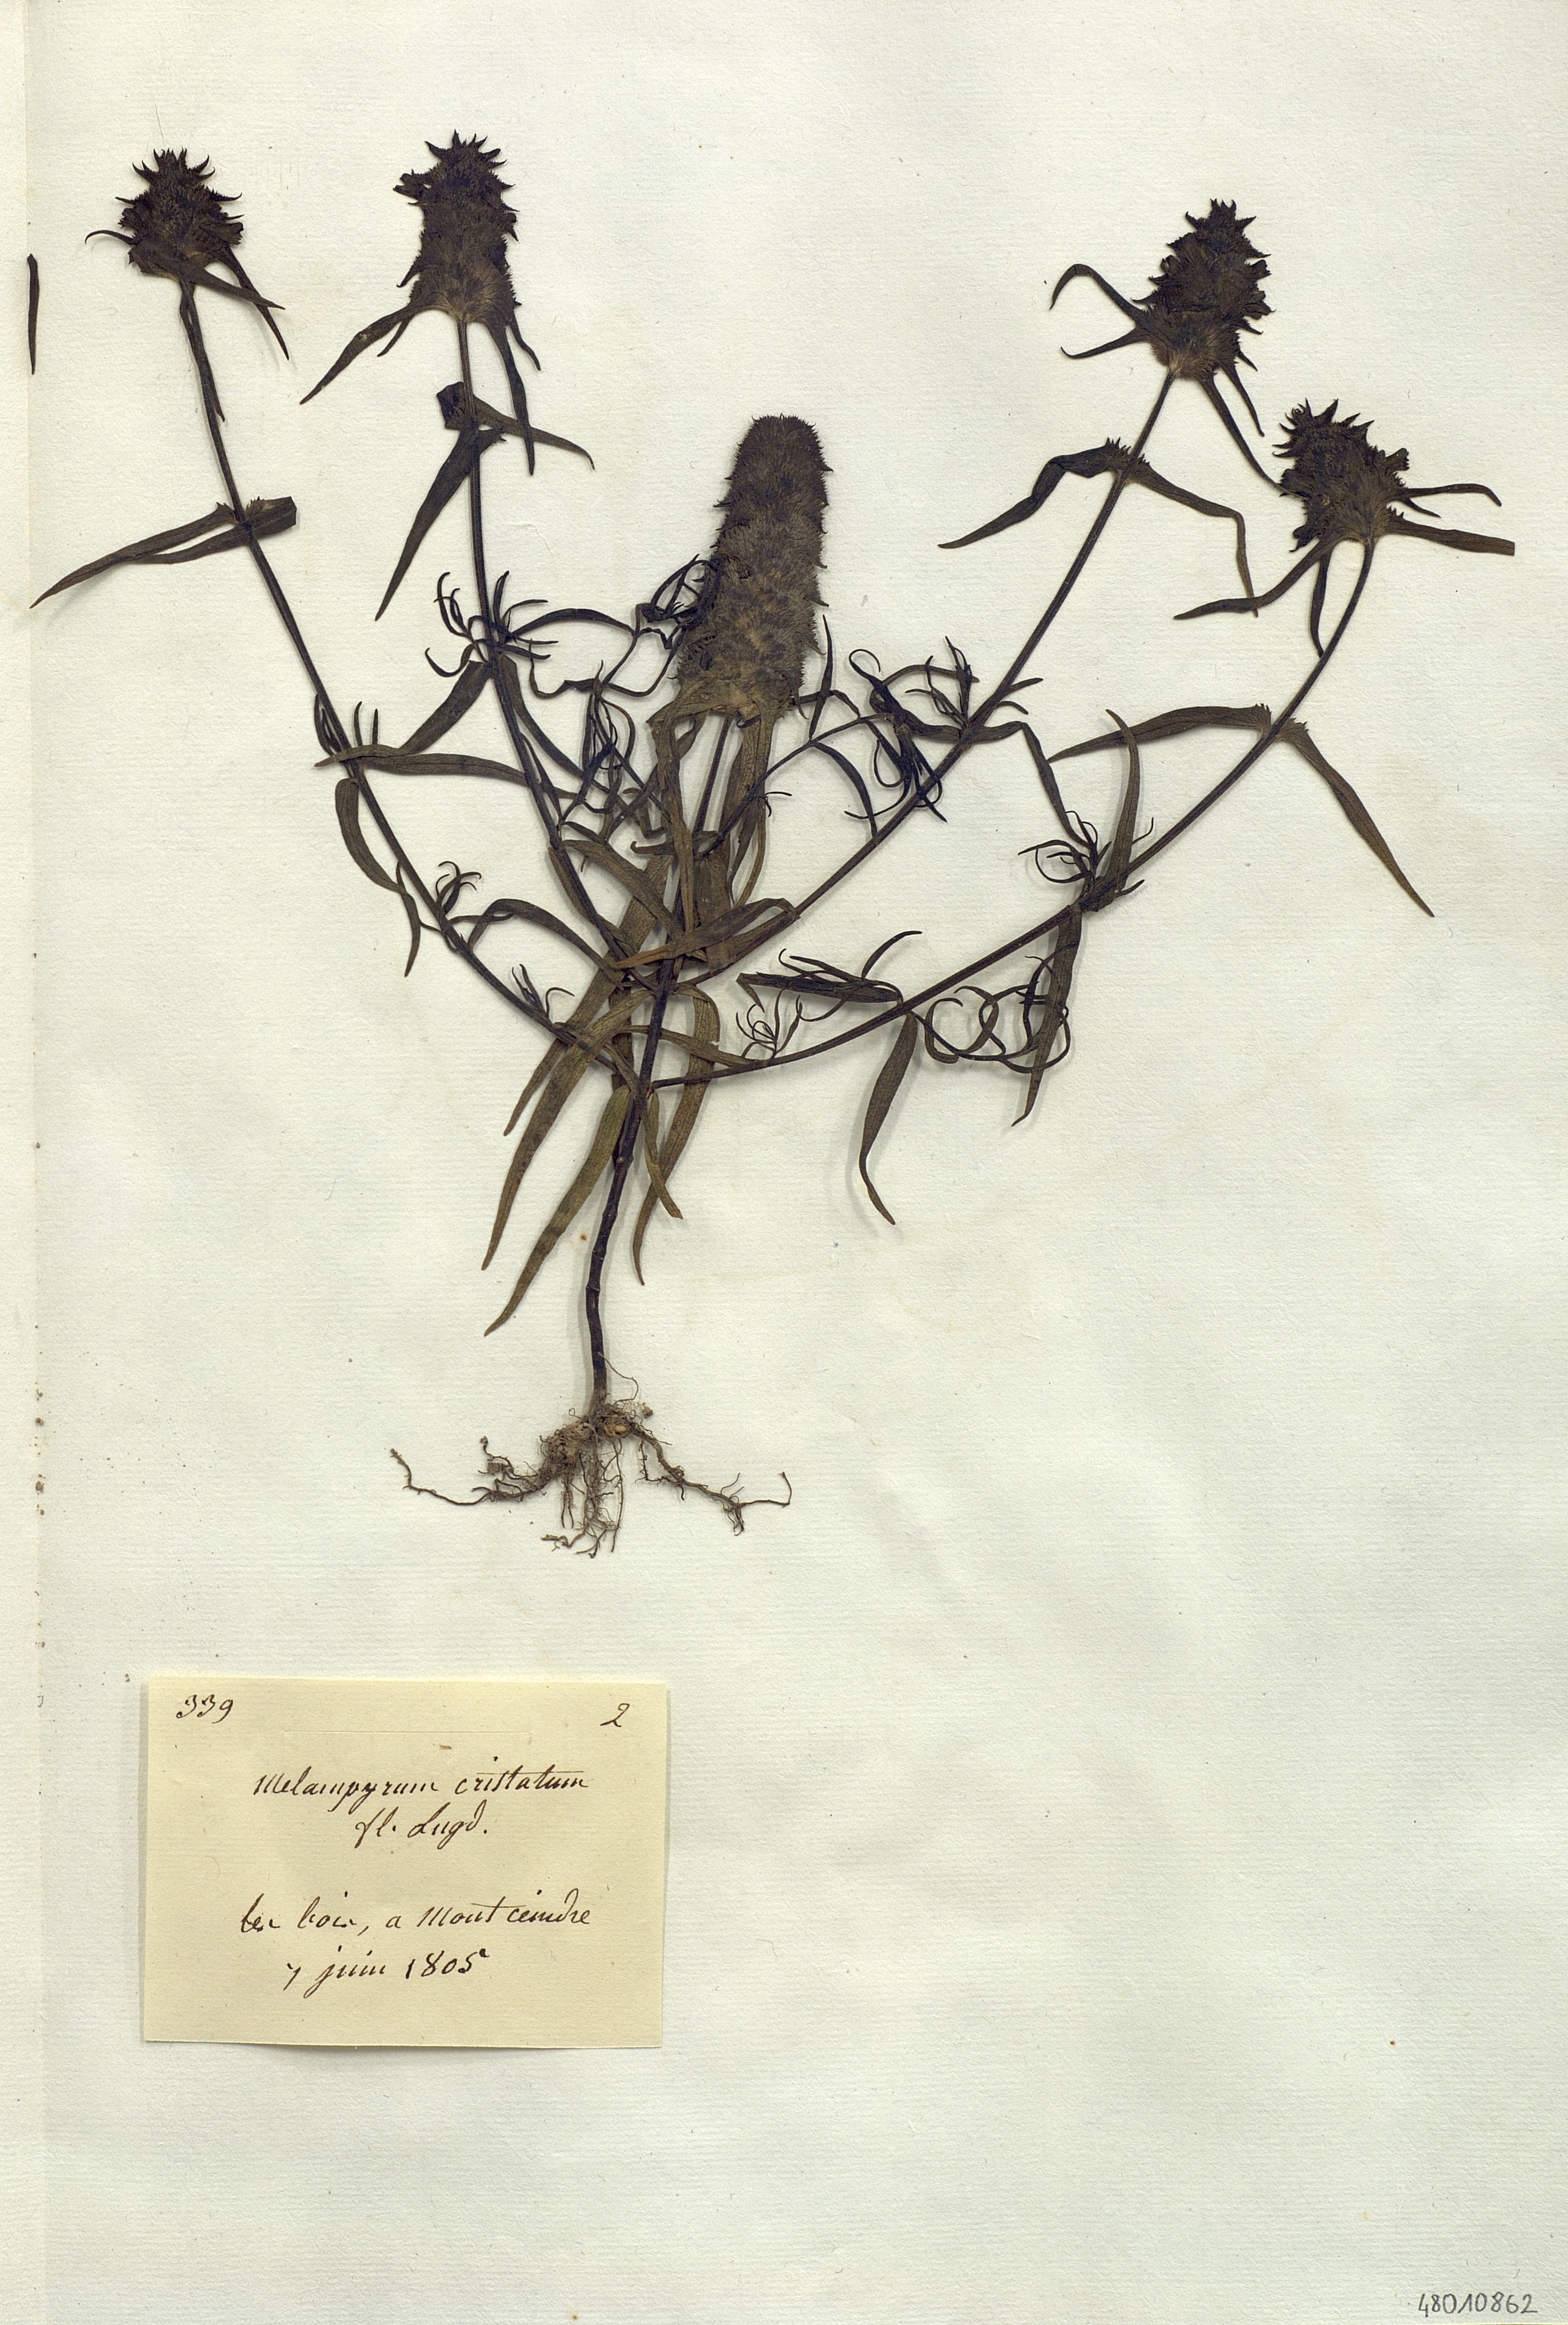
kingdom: Plantae
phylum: Tracheophyta
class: Magnoliopsida
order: Lamiales
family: Orobanchaceae
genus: Melampyrum
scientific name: Melampyrum cristatum
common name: Crested cow-wheat
